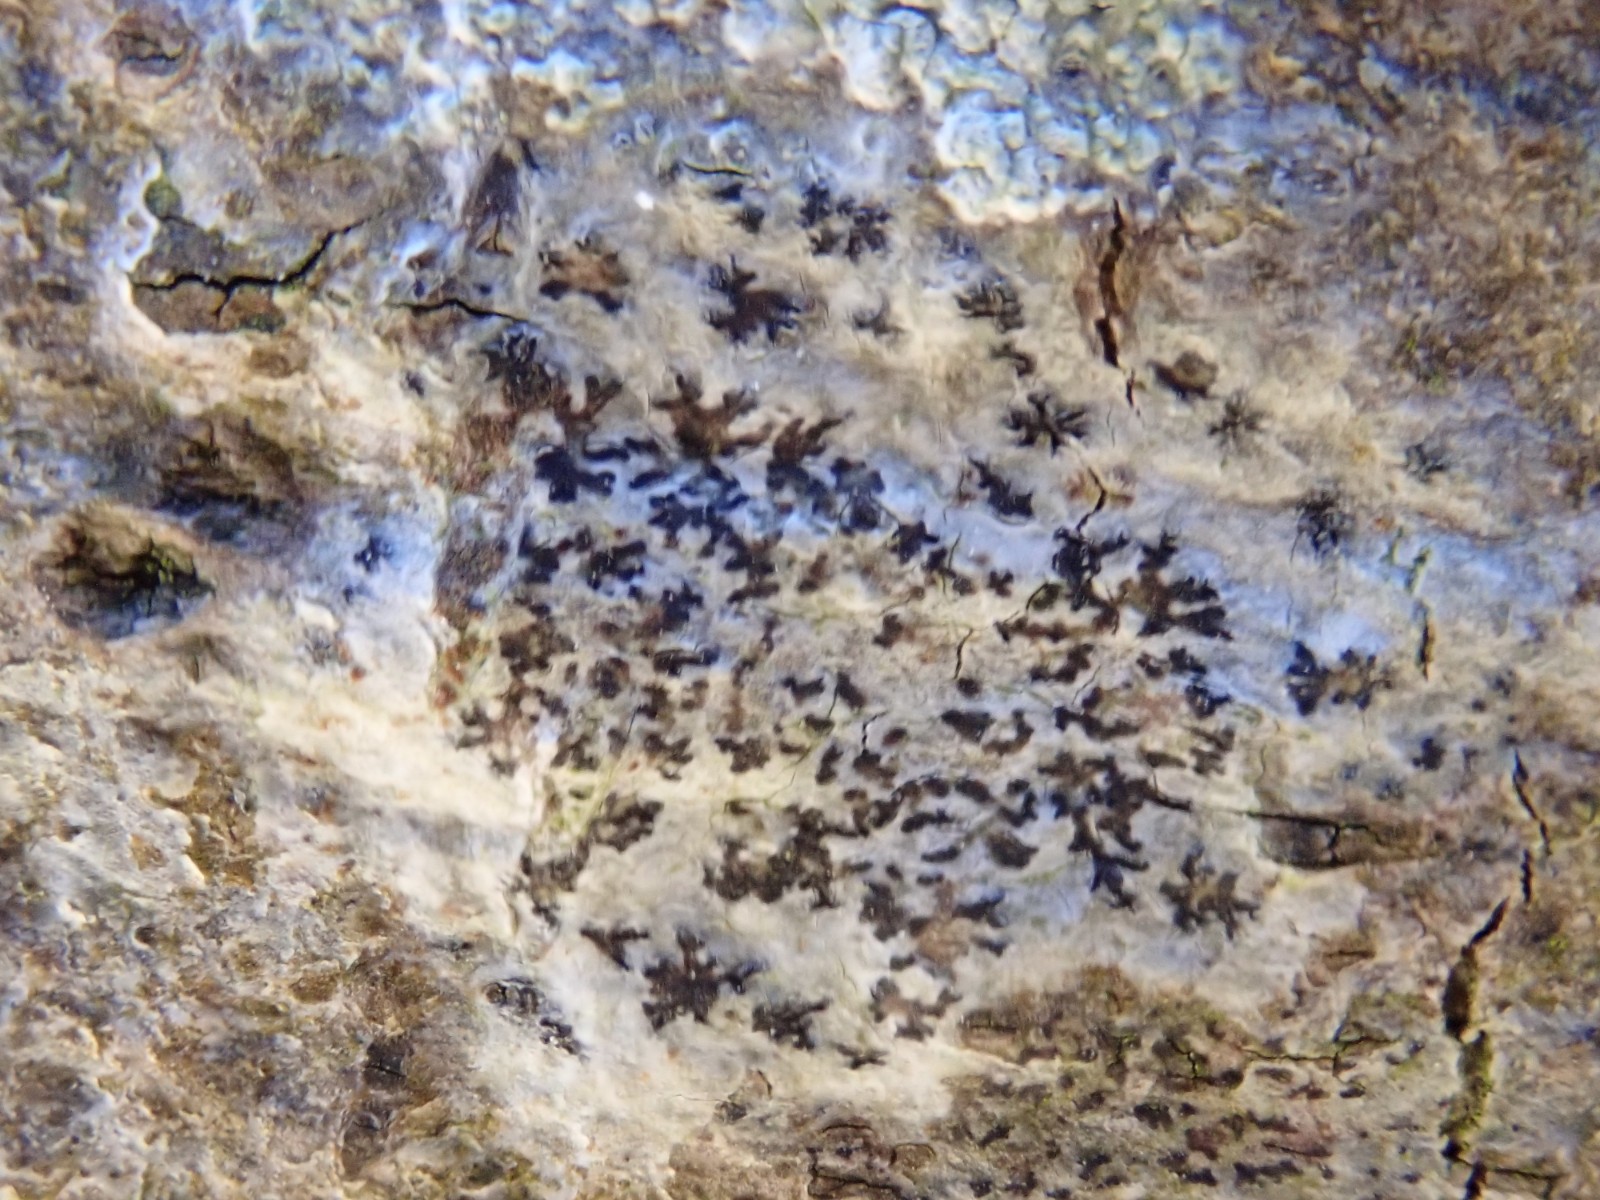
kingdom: Fungi
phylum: Ascomycota
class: Arthoniomycetes
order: Arthoniales
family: Arthoniaceae
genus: Arthonia
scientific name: Arthonia radiata
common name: stjerne-pletlav
